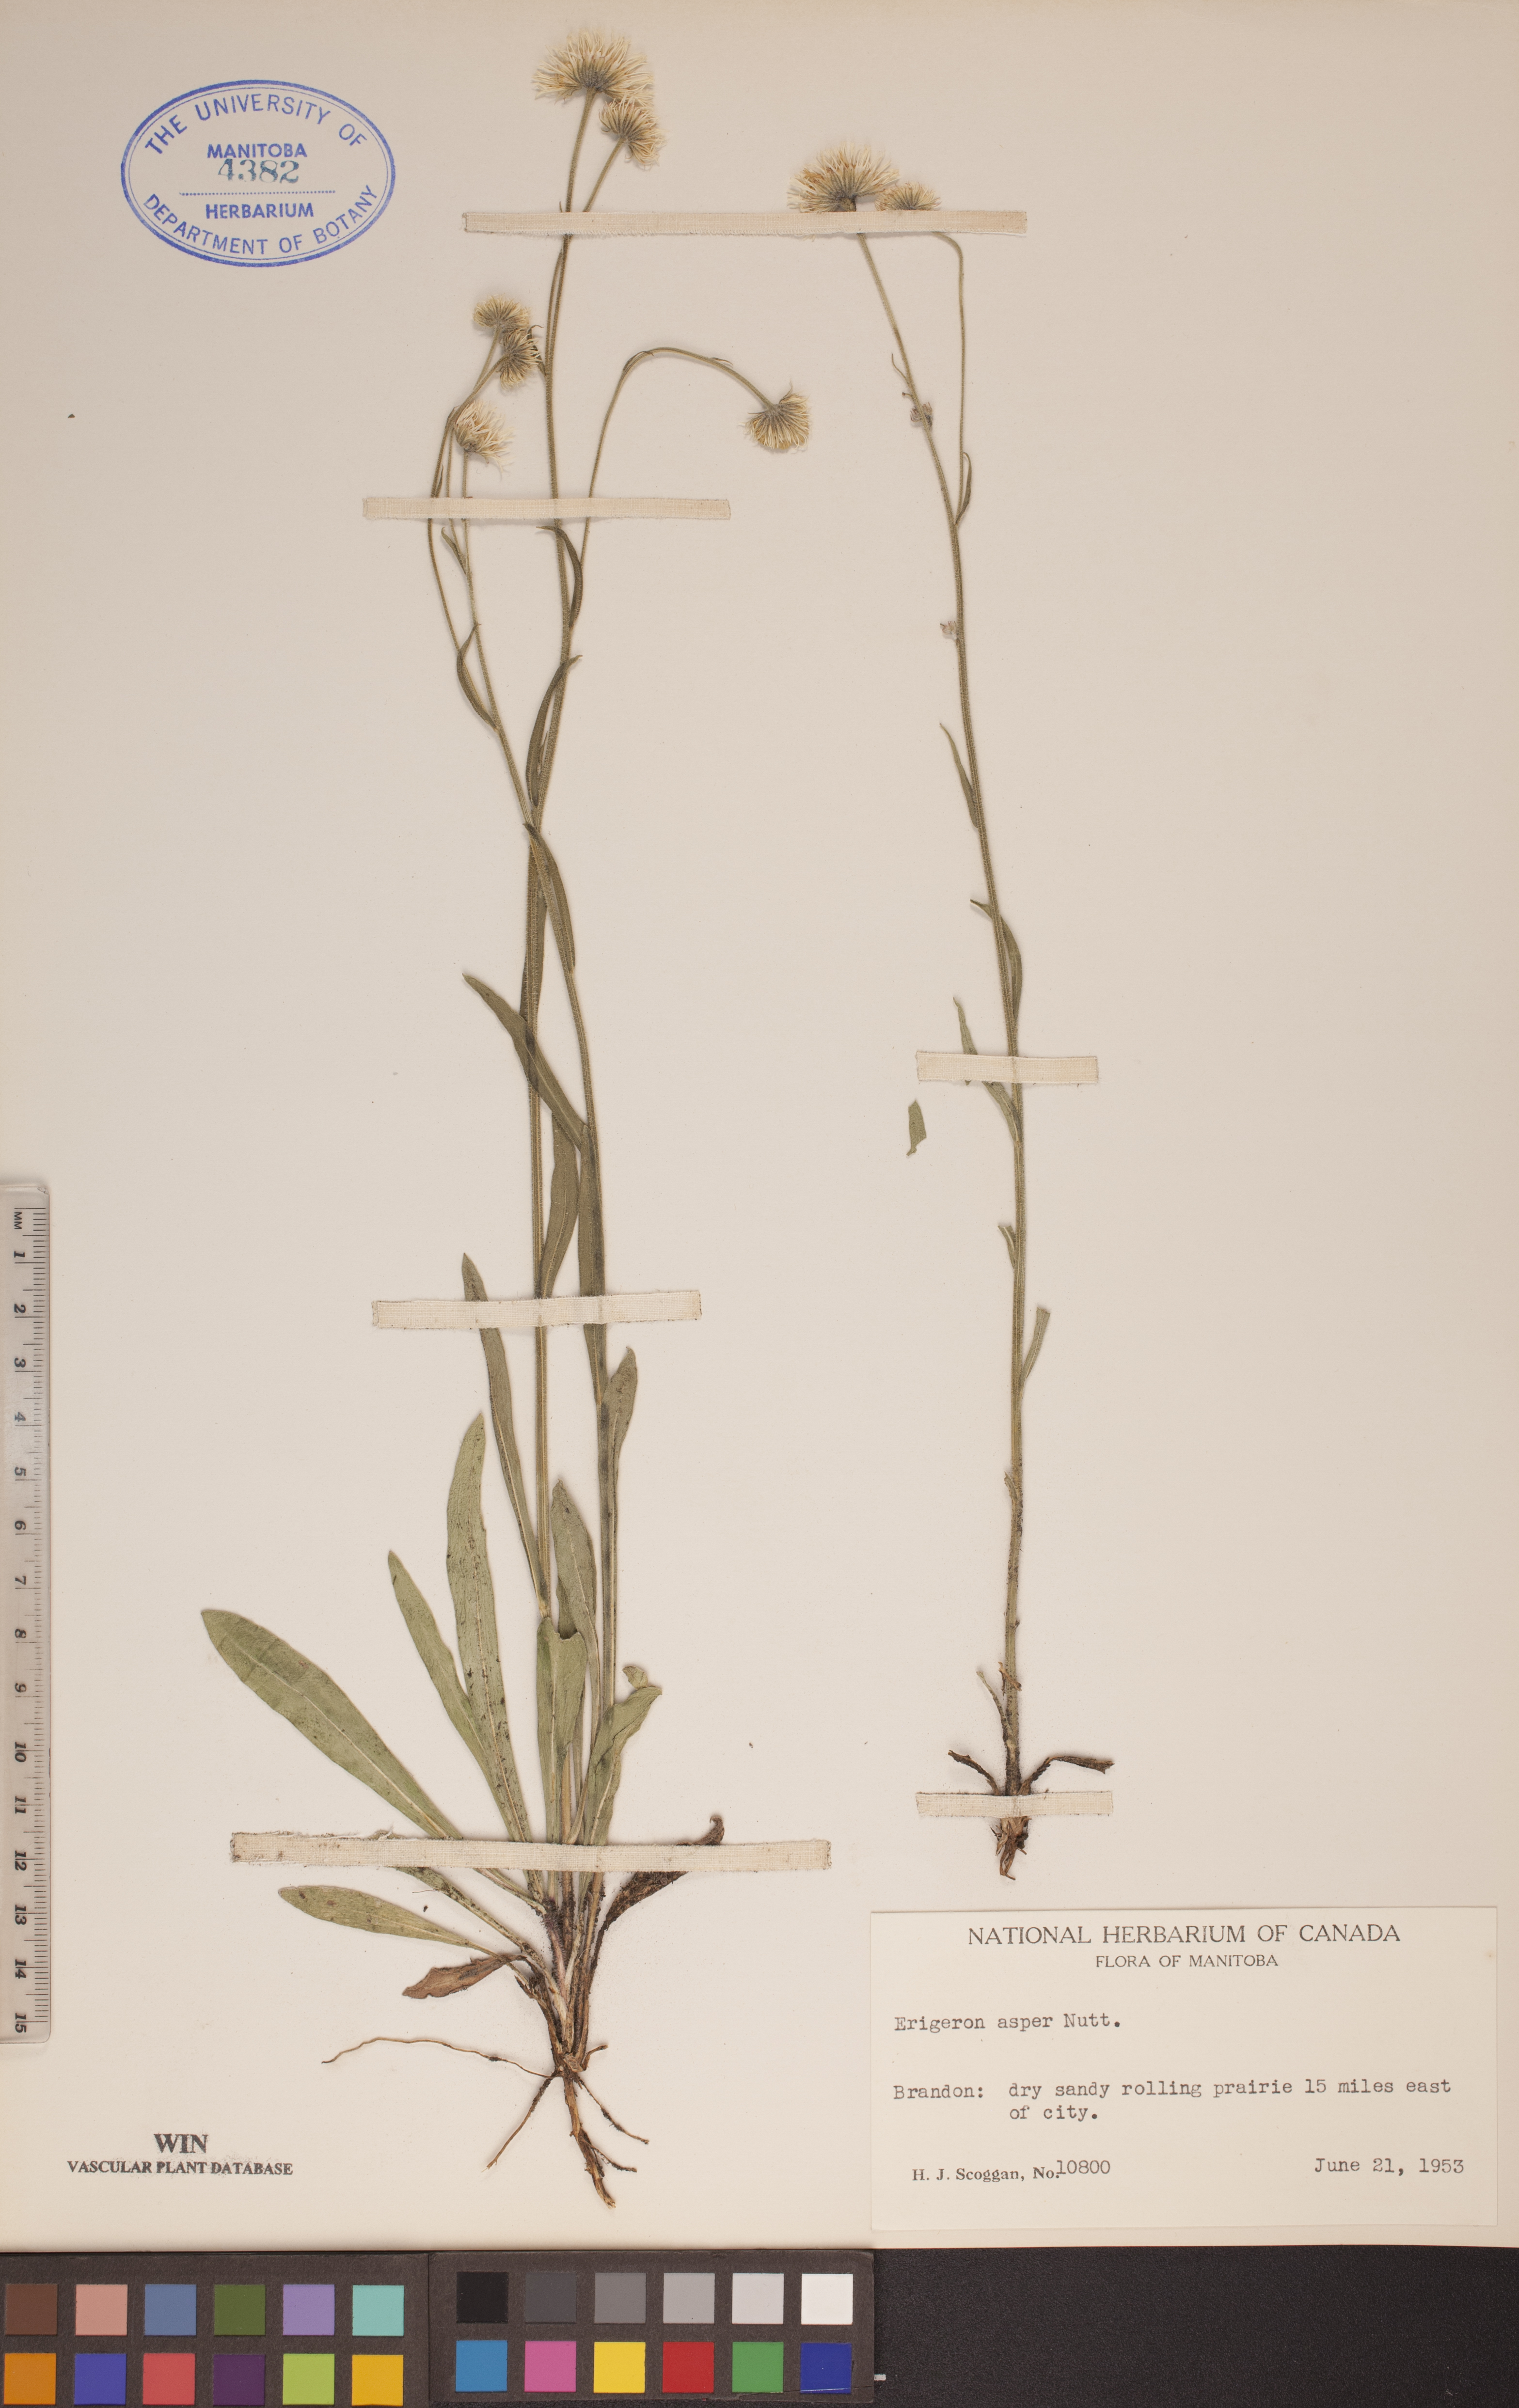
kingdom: Plantae
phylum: Tracheophyta
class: Magnoliopsida
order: Asterales
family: Asteraceae
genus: Erigeron
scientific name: Erigeron glabellus
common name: Smooth fleabane
